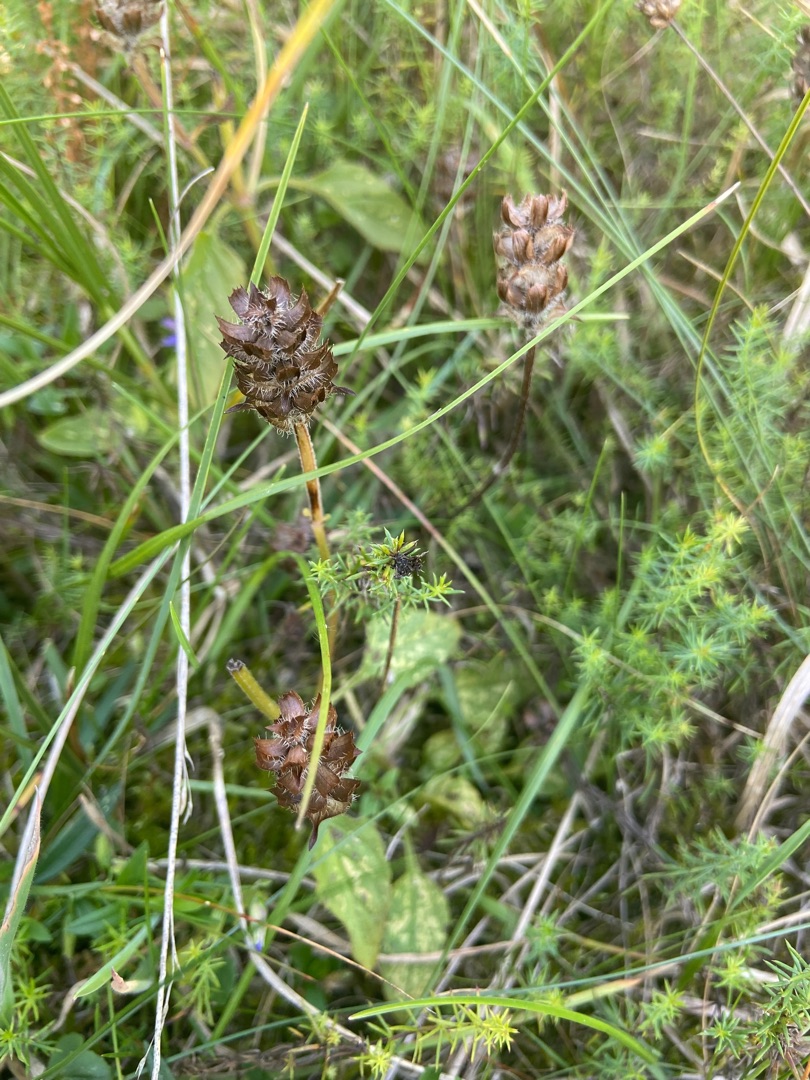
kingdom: Plantae
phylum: Tracheophyta
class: Magnoliopsida
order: Lamiales
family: Lamiaceae
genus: Prunella
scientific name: Prunella vulgaris
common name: Almindelig brunelle
